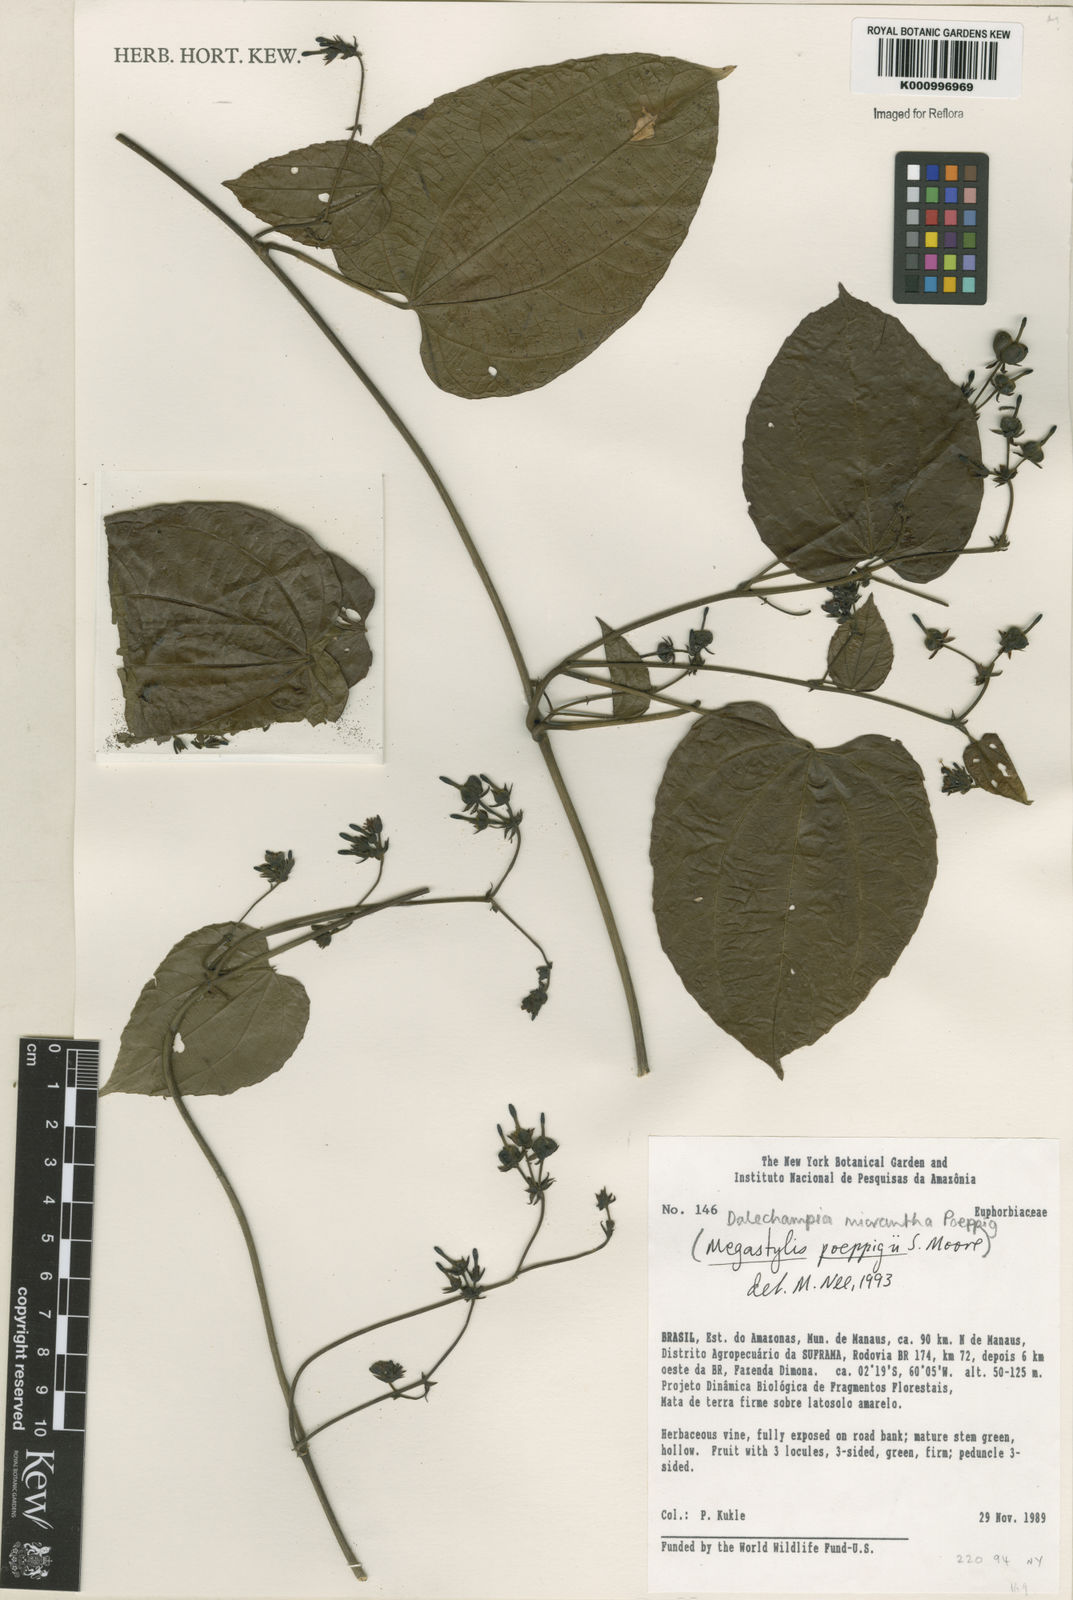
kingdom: Plantae
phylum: Tracheophyta
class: Magnoliopsida
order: Malpighiales
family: Euphorbiaceae
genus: Dalechampia
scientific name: Dalechampia micrantha
